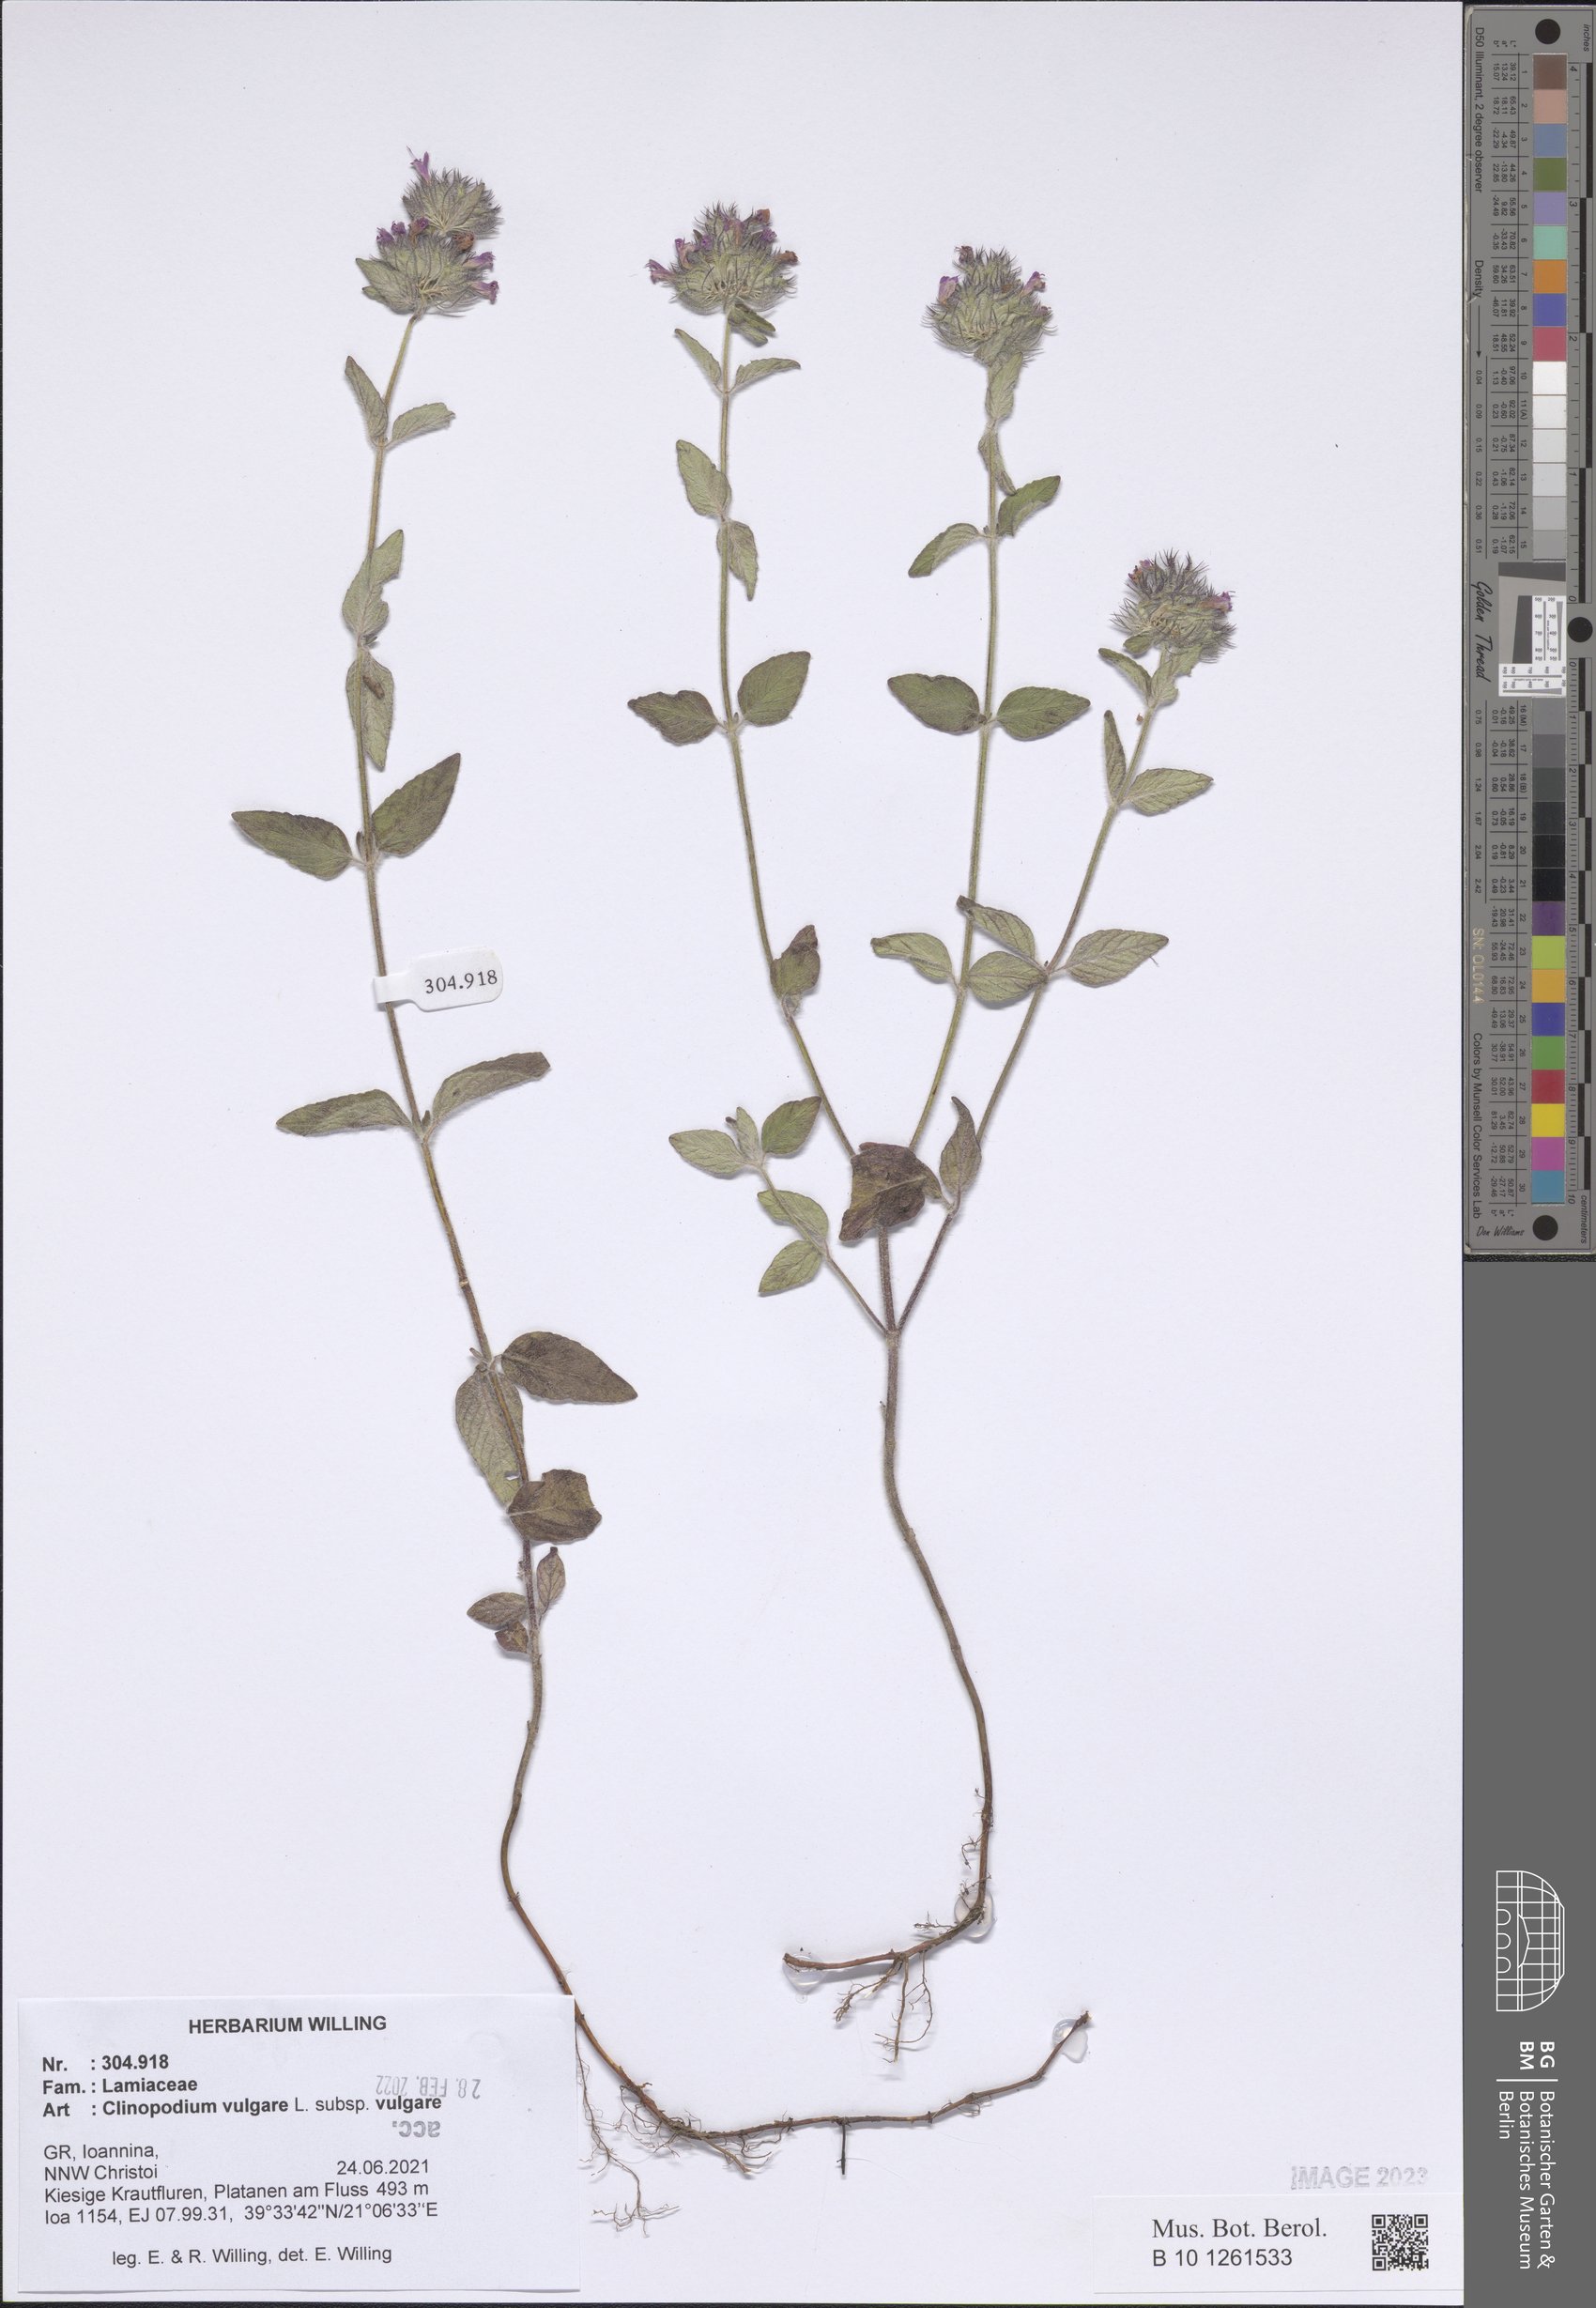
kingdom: Plantae
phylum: Tracheophyta
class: Magnoliopsida
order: Lamiales
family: Lamiaceae
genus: Clinopodium
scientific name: Clinopodium vulgare
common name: Wild basil
